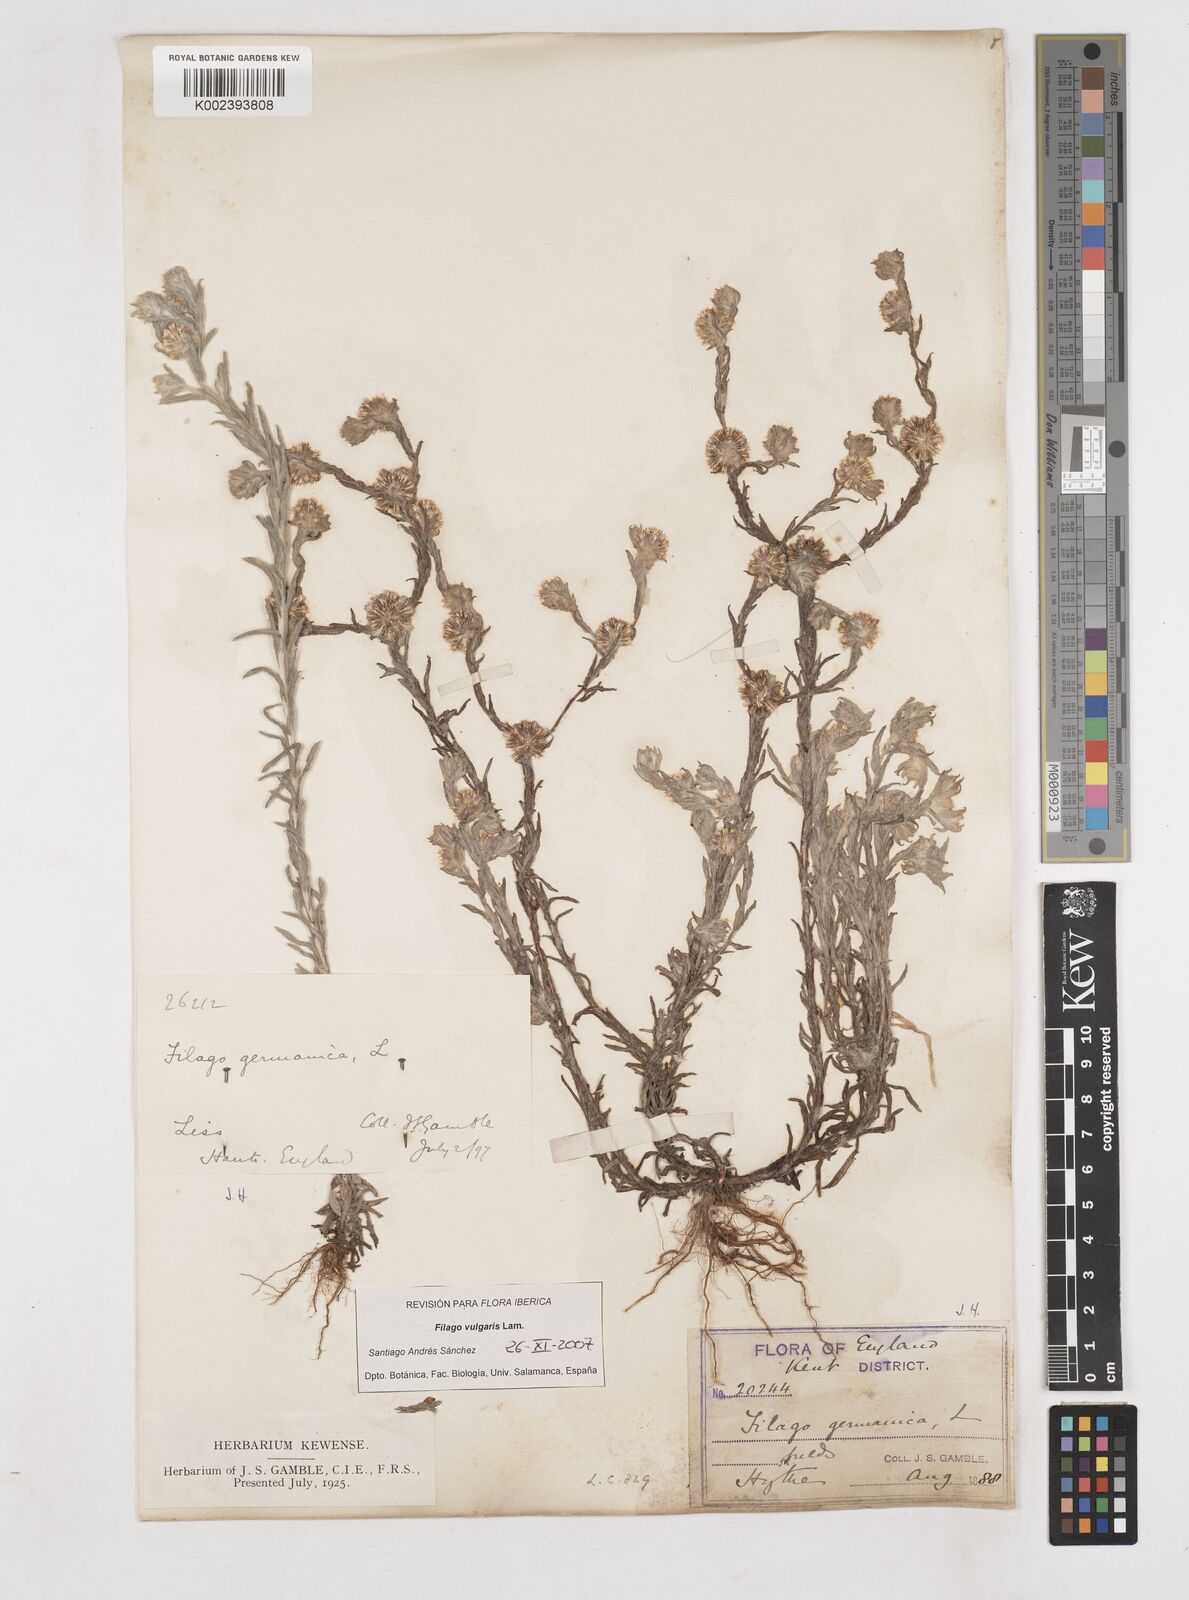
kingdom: Plantae
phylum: Tracheophyta
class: Magnoliopsida
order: Asterales
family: Asteraceae
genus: Filago
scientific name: Filago germanica
